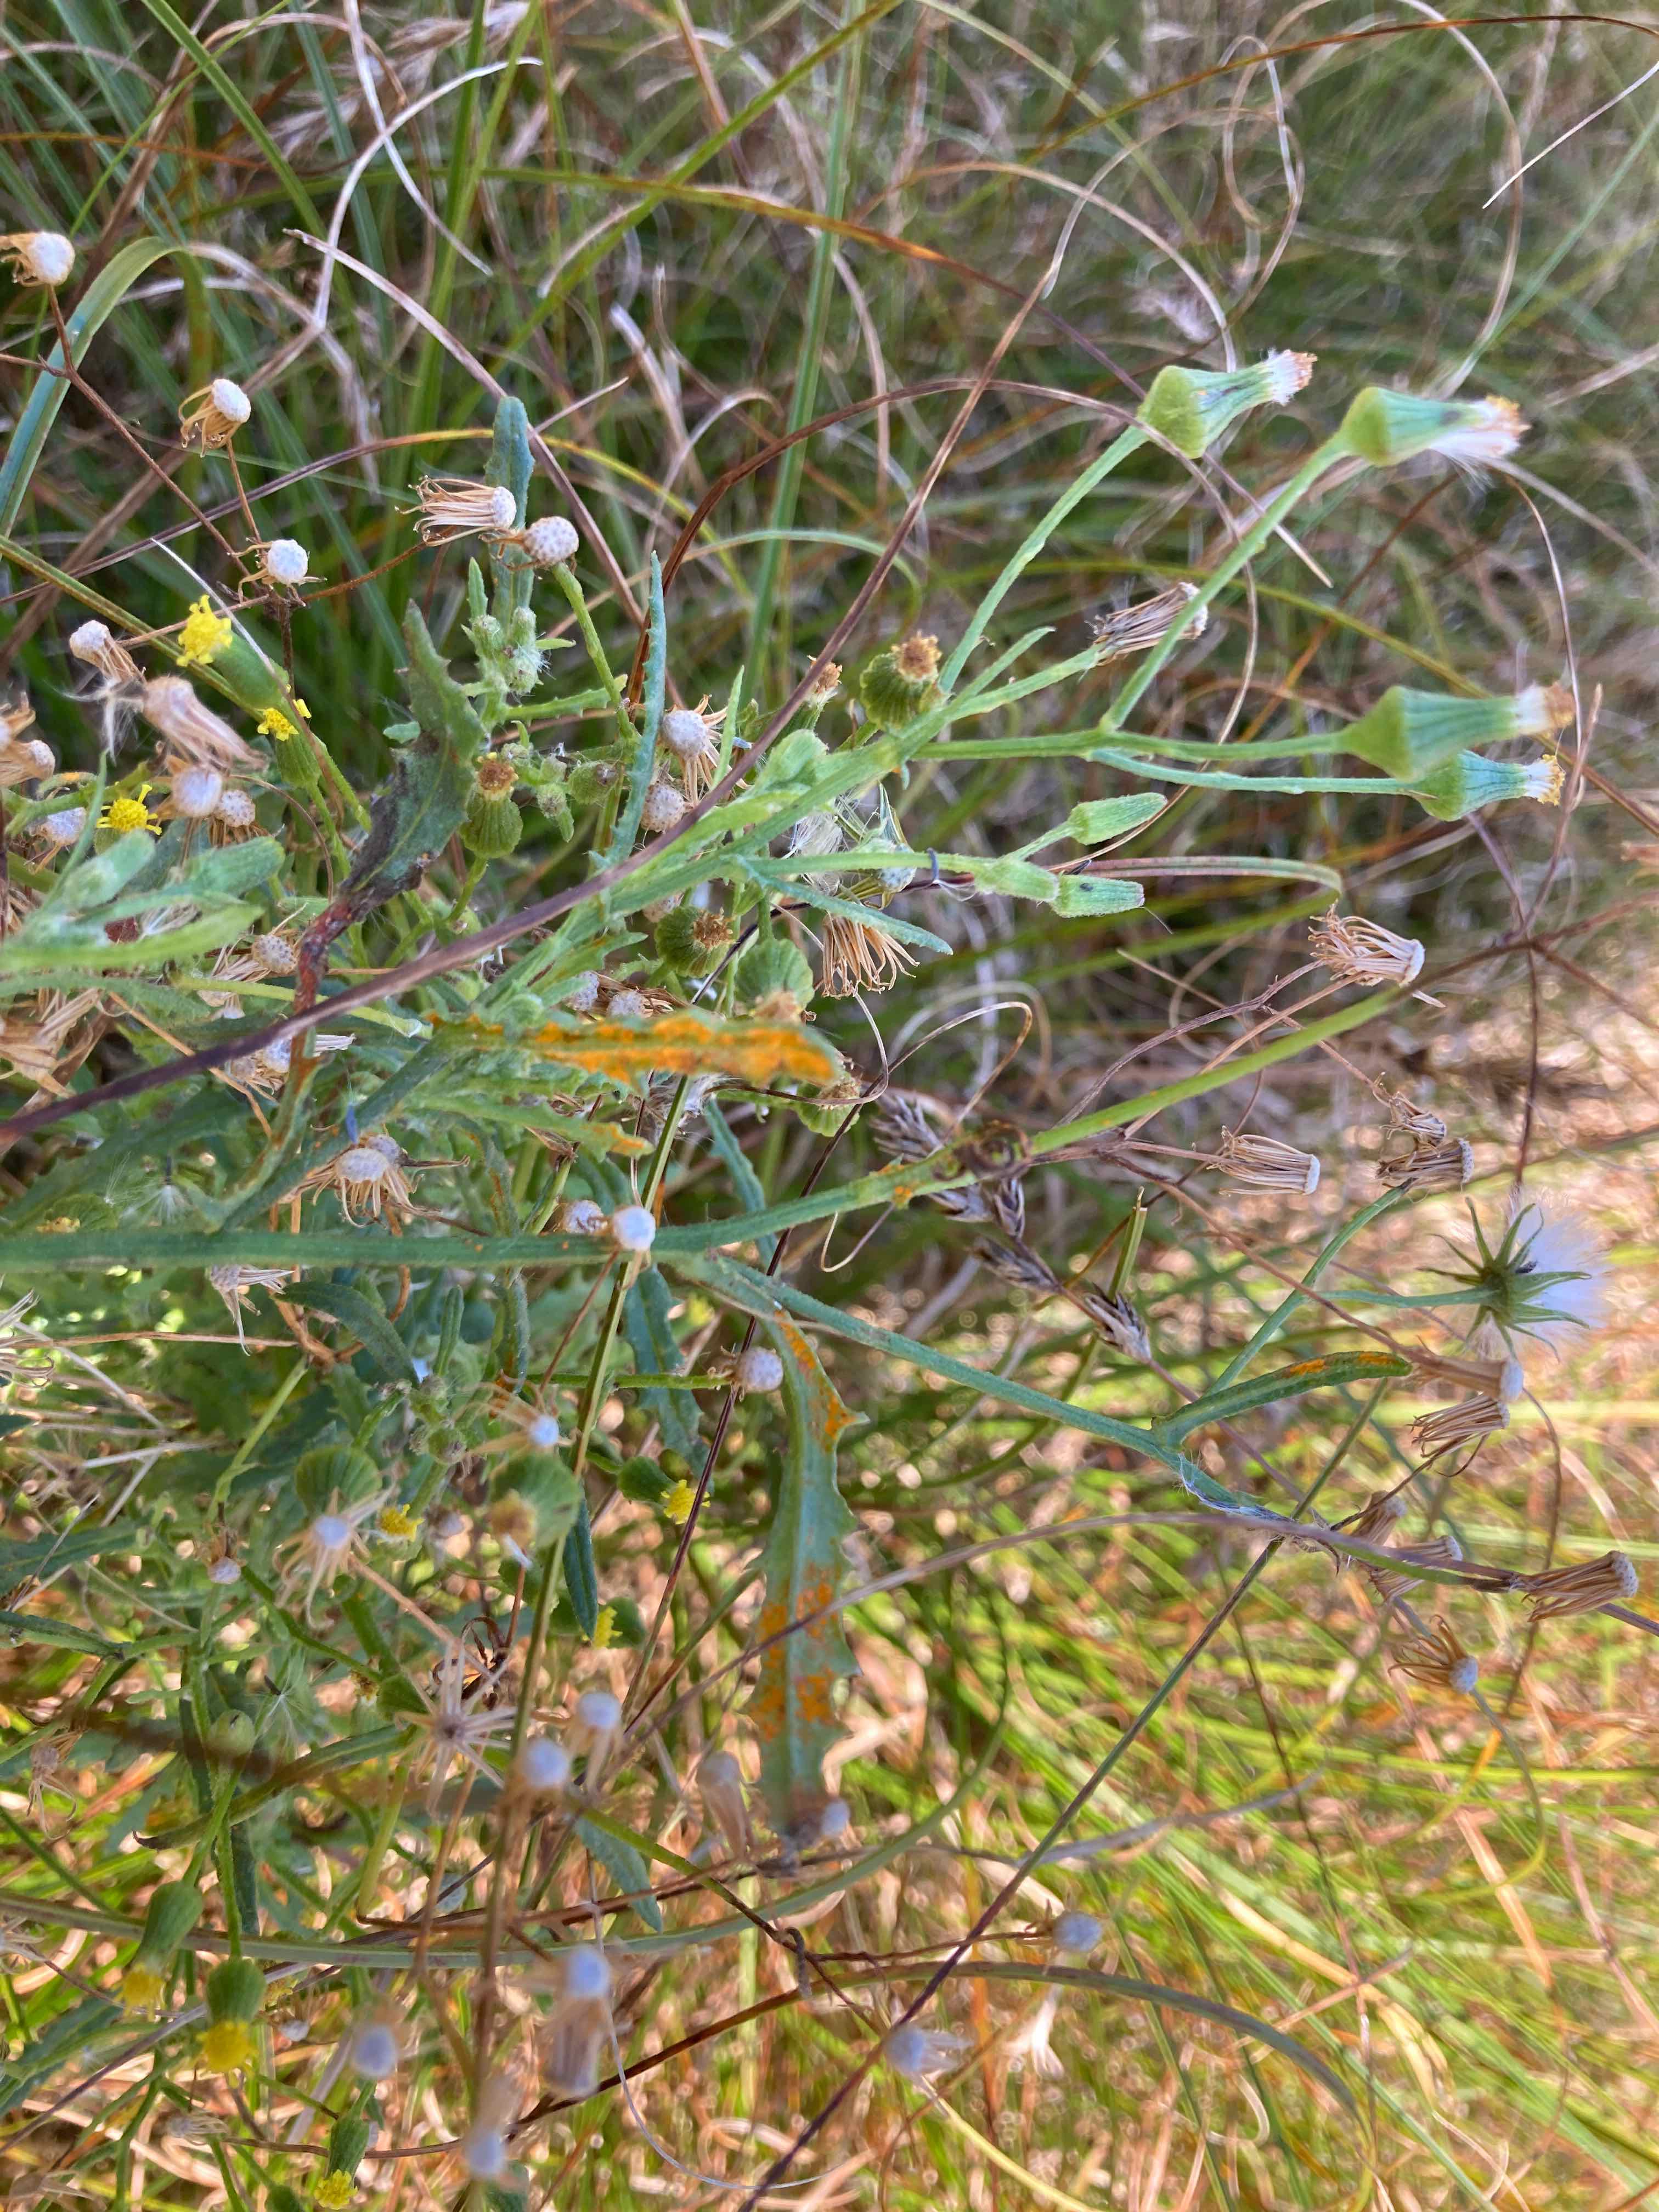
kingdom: Fungi
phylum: Basidiomycota
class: Pucciniomycetes
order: Pucciniales
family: Coleosporiaceae
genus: Coleosporium
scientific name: Coleosporium senecionis
